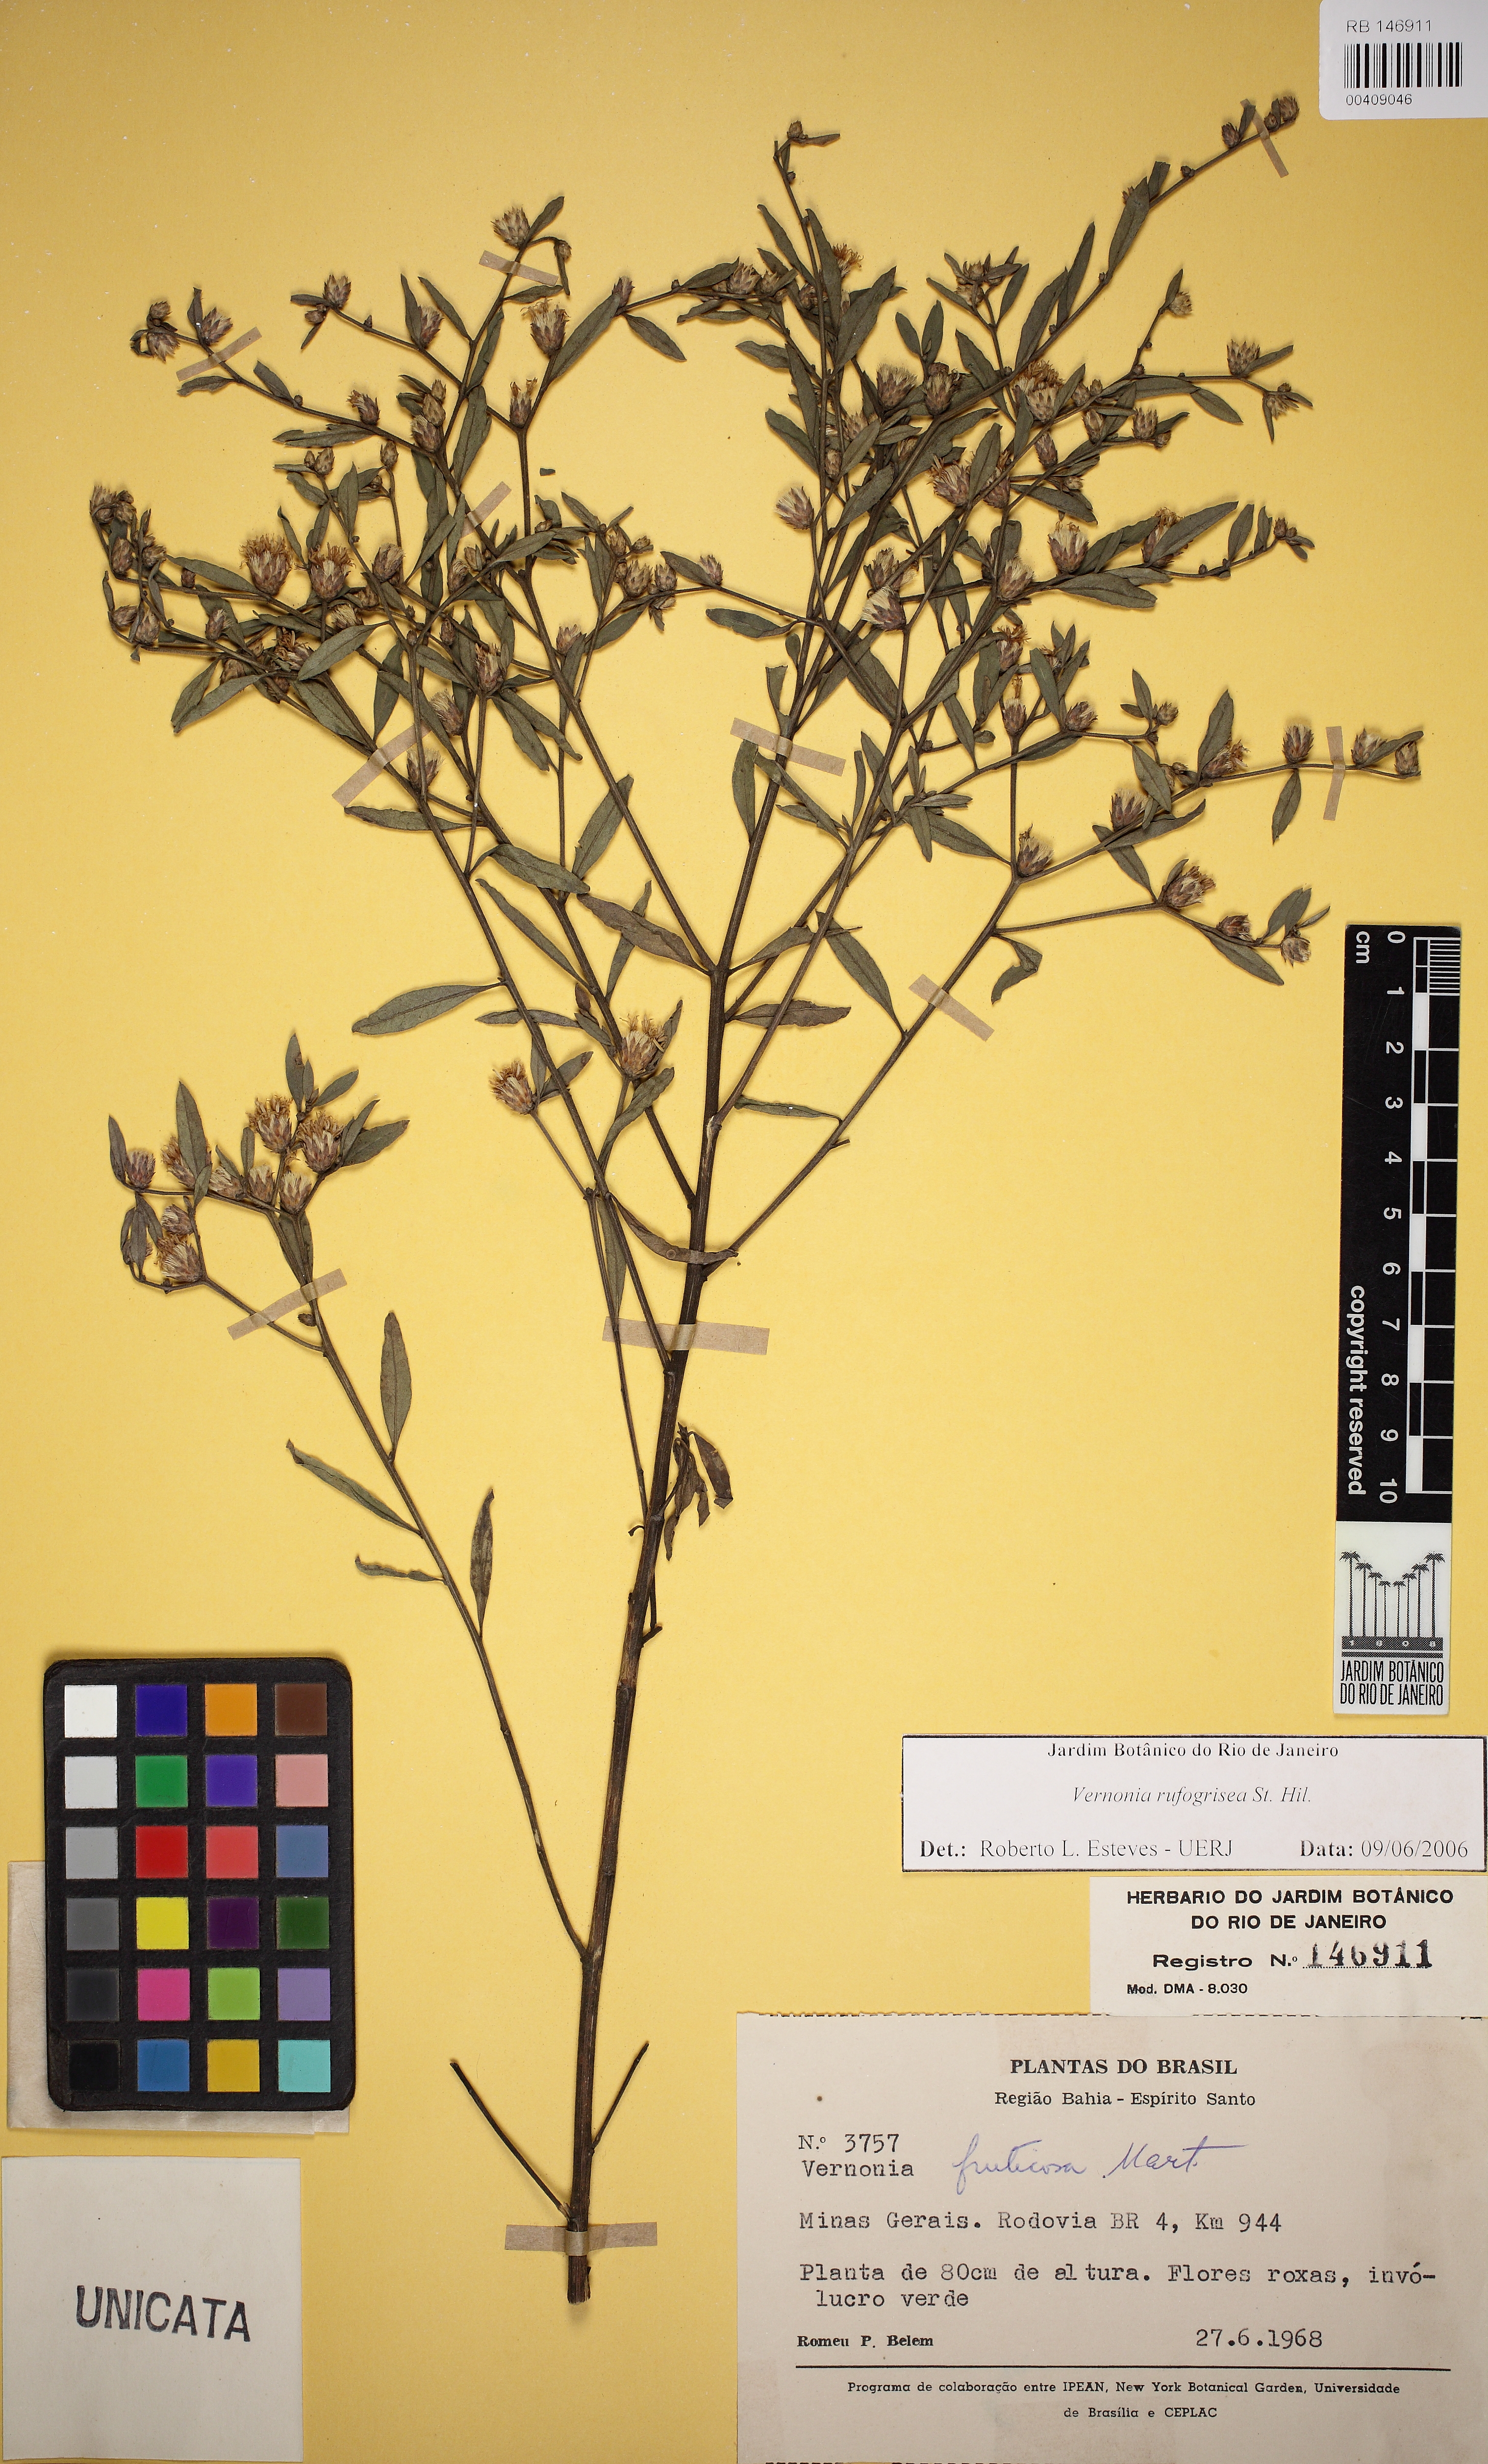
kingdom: Plantae
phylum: Tracheophyta
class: Magnoliopsida
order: Asterales
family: Asteraceae
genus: Lepidaploa
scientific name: Lepidaploa rufogrisea
